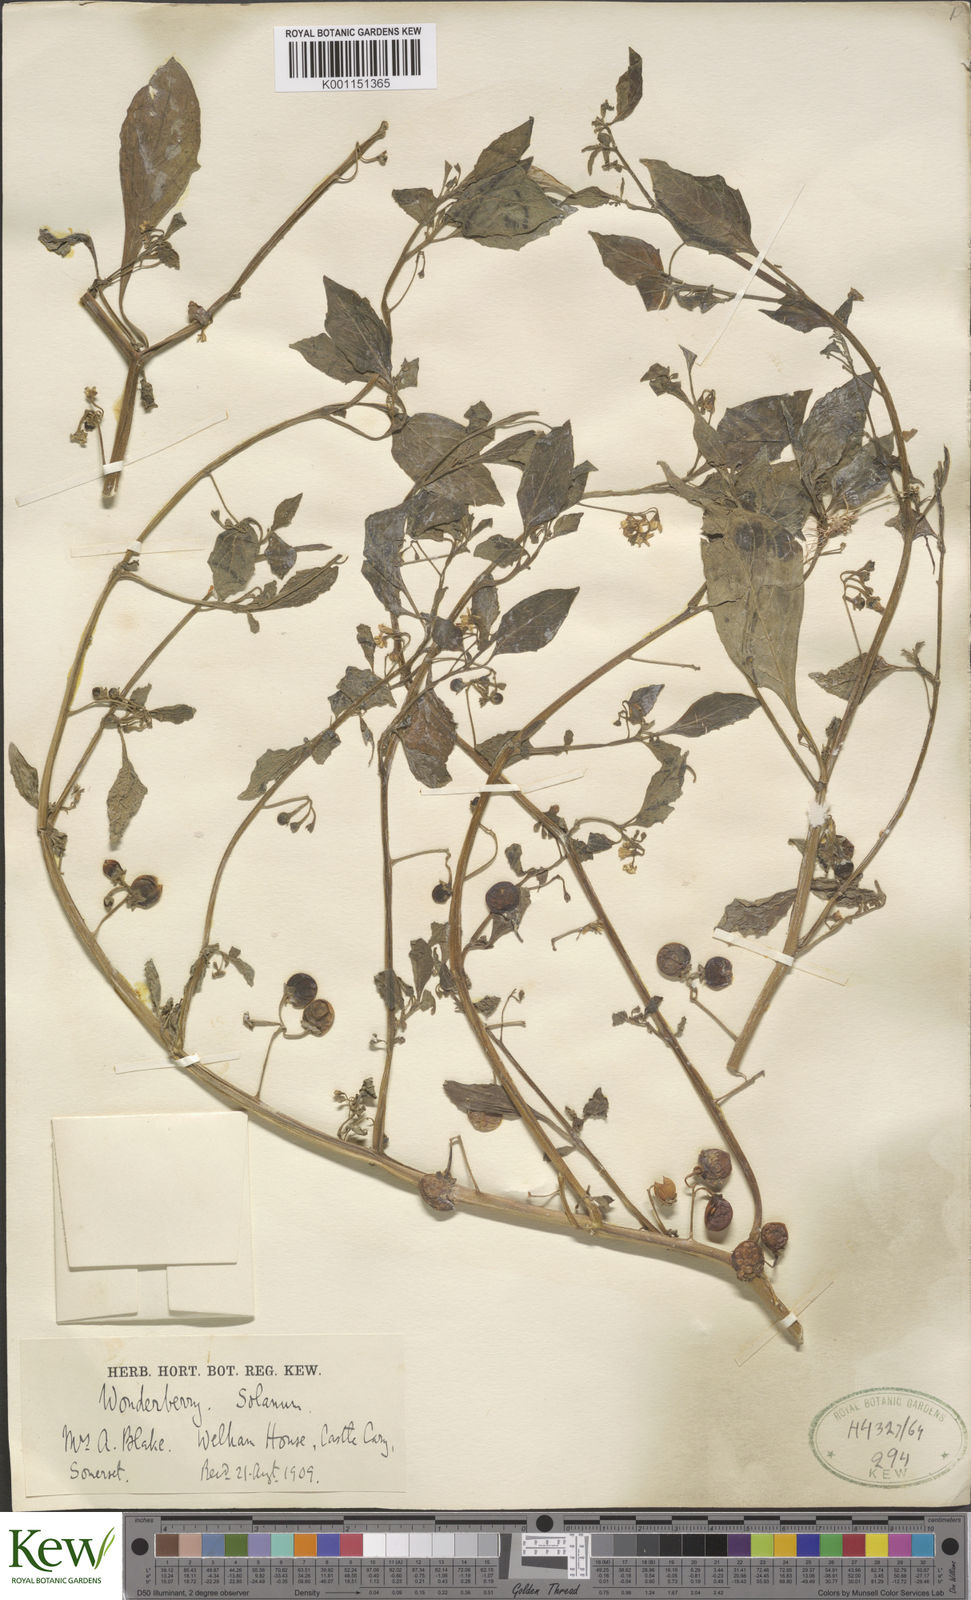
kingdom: Plantae
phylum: Tracheophyta
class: Magnoliopsida
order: Solanales
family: Solanaceae
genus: Solanum
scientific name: Solanum scabrum
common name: Garden-huckleberry
